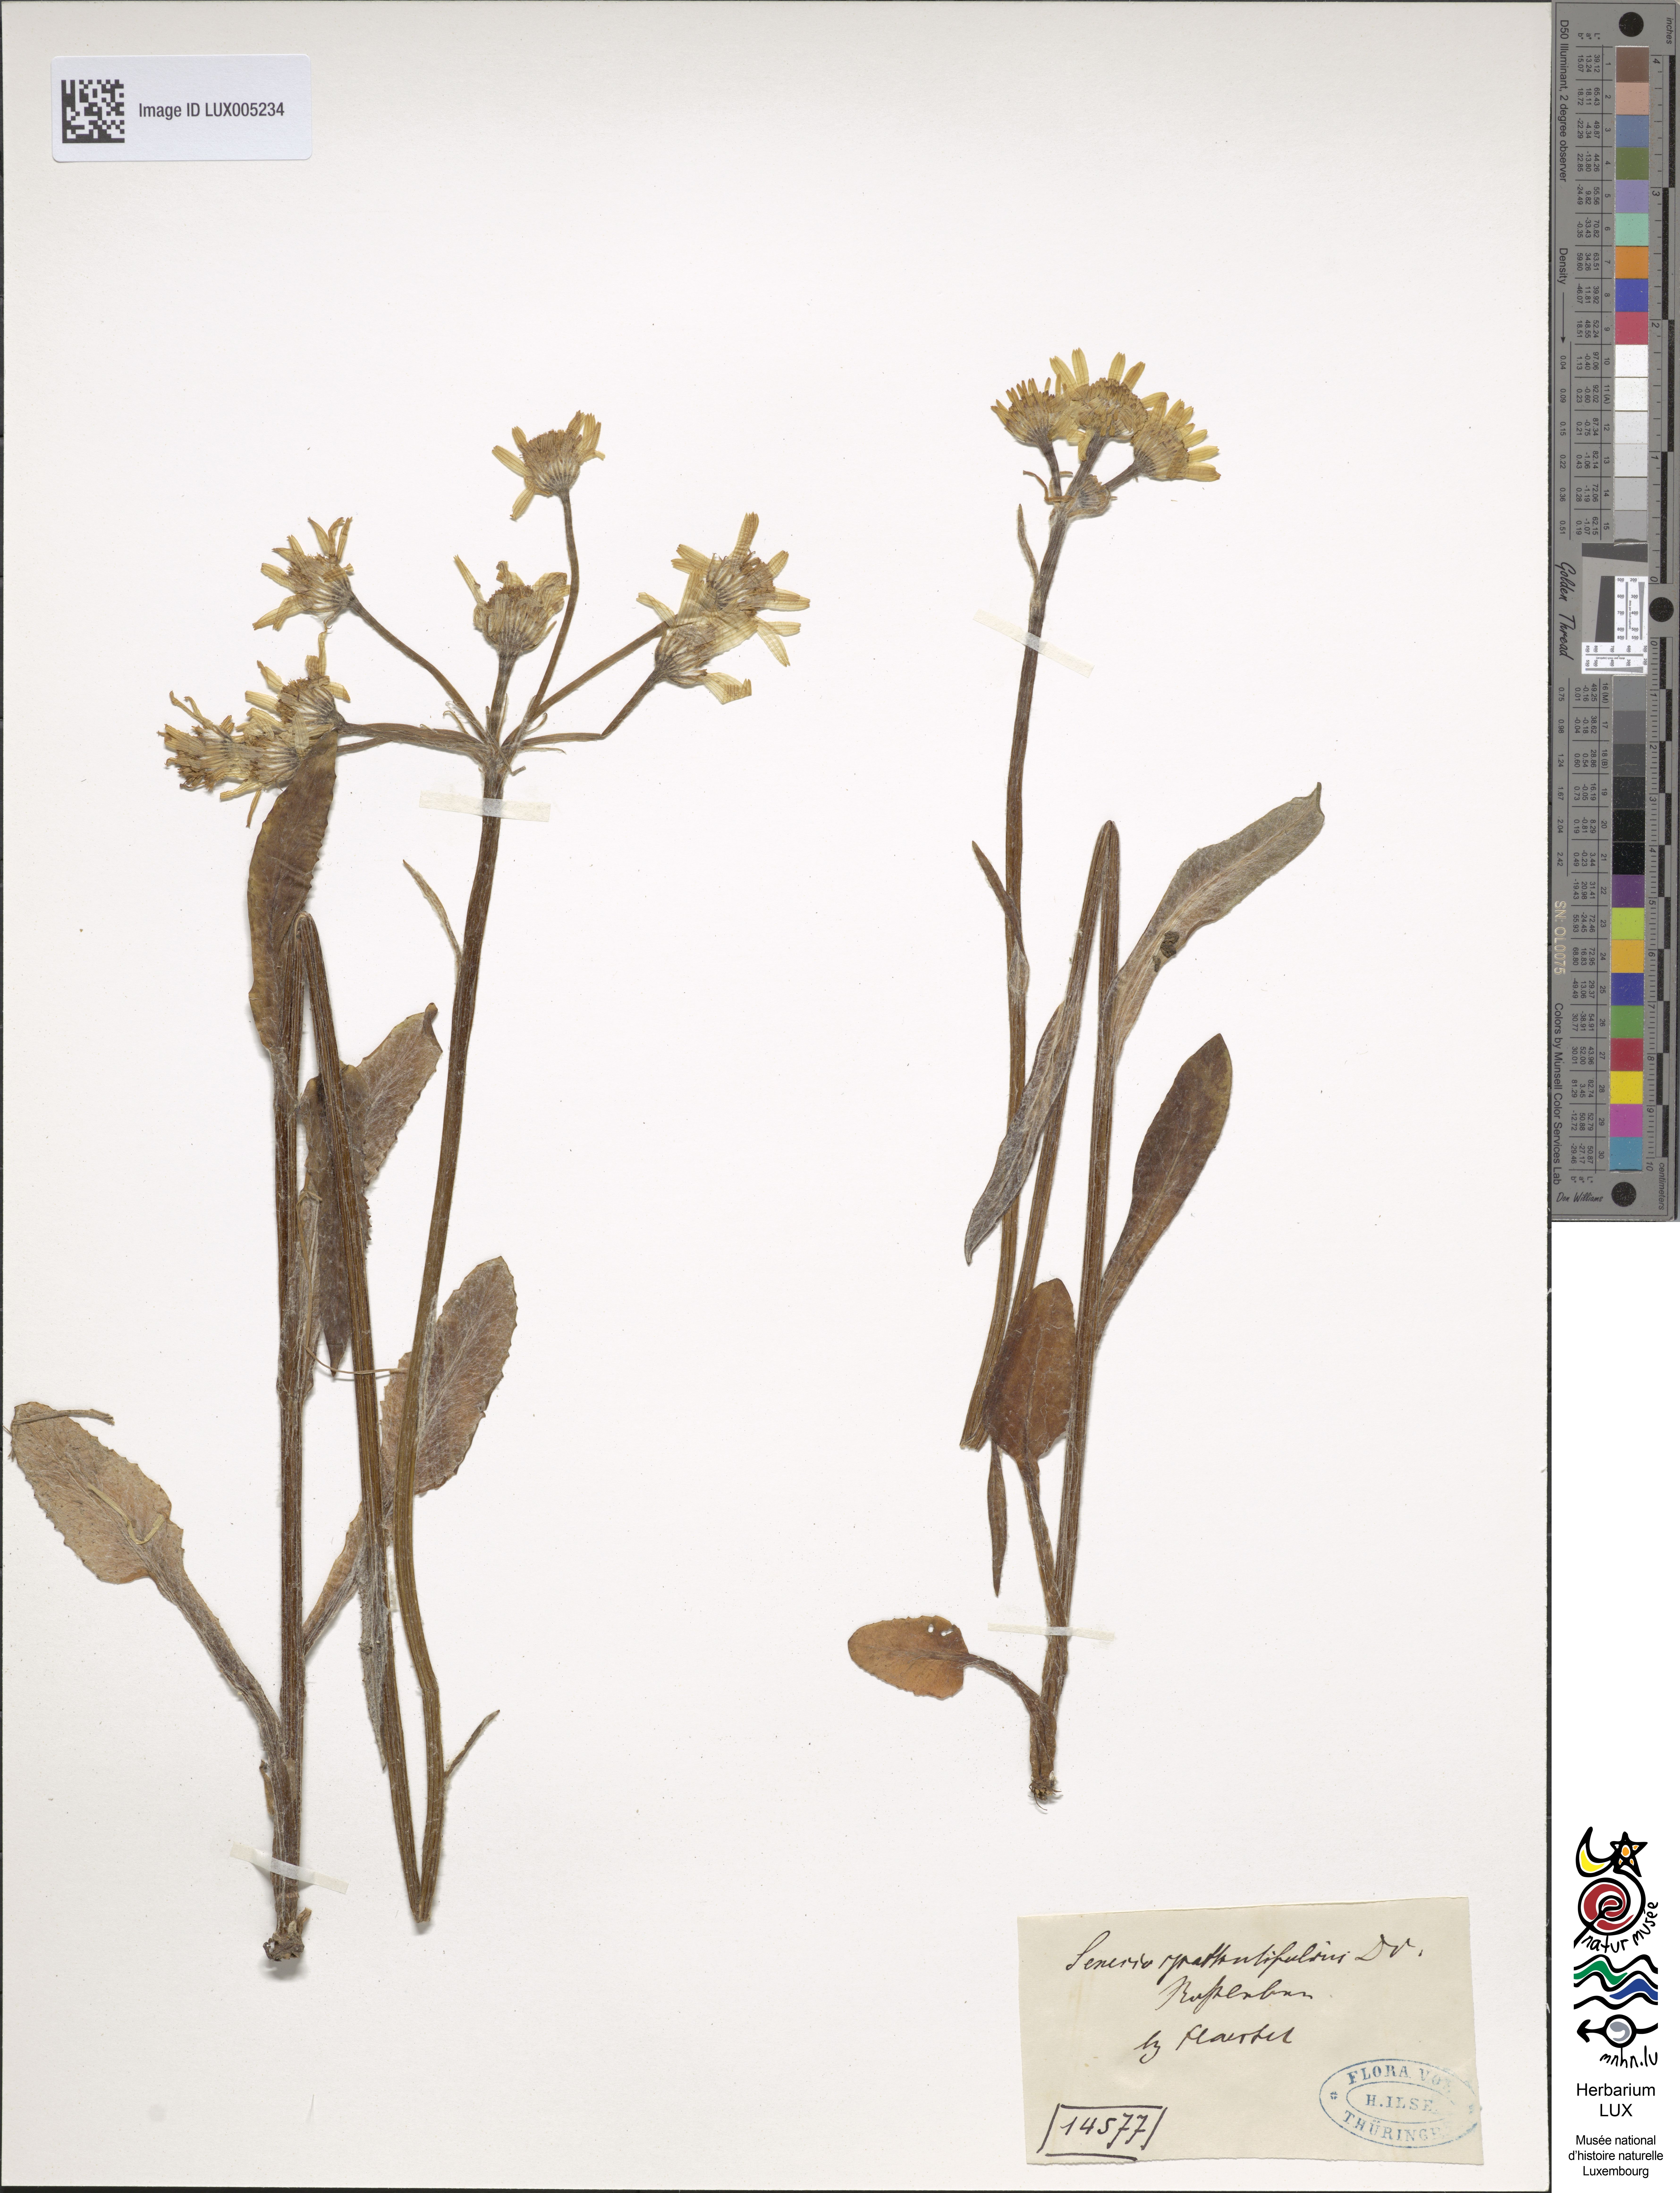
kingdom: Plantae
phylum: Tracheophyta
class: Magnoliopsida
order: Asterales
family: Asteraceae
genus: Senecio
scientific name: Senecio spathulaefolius
